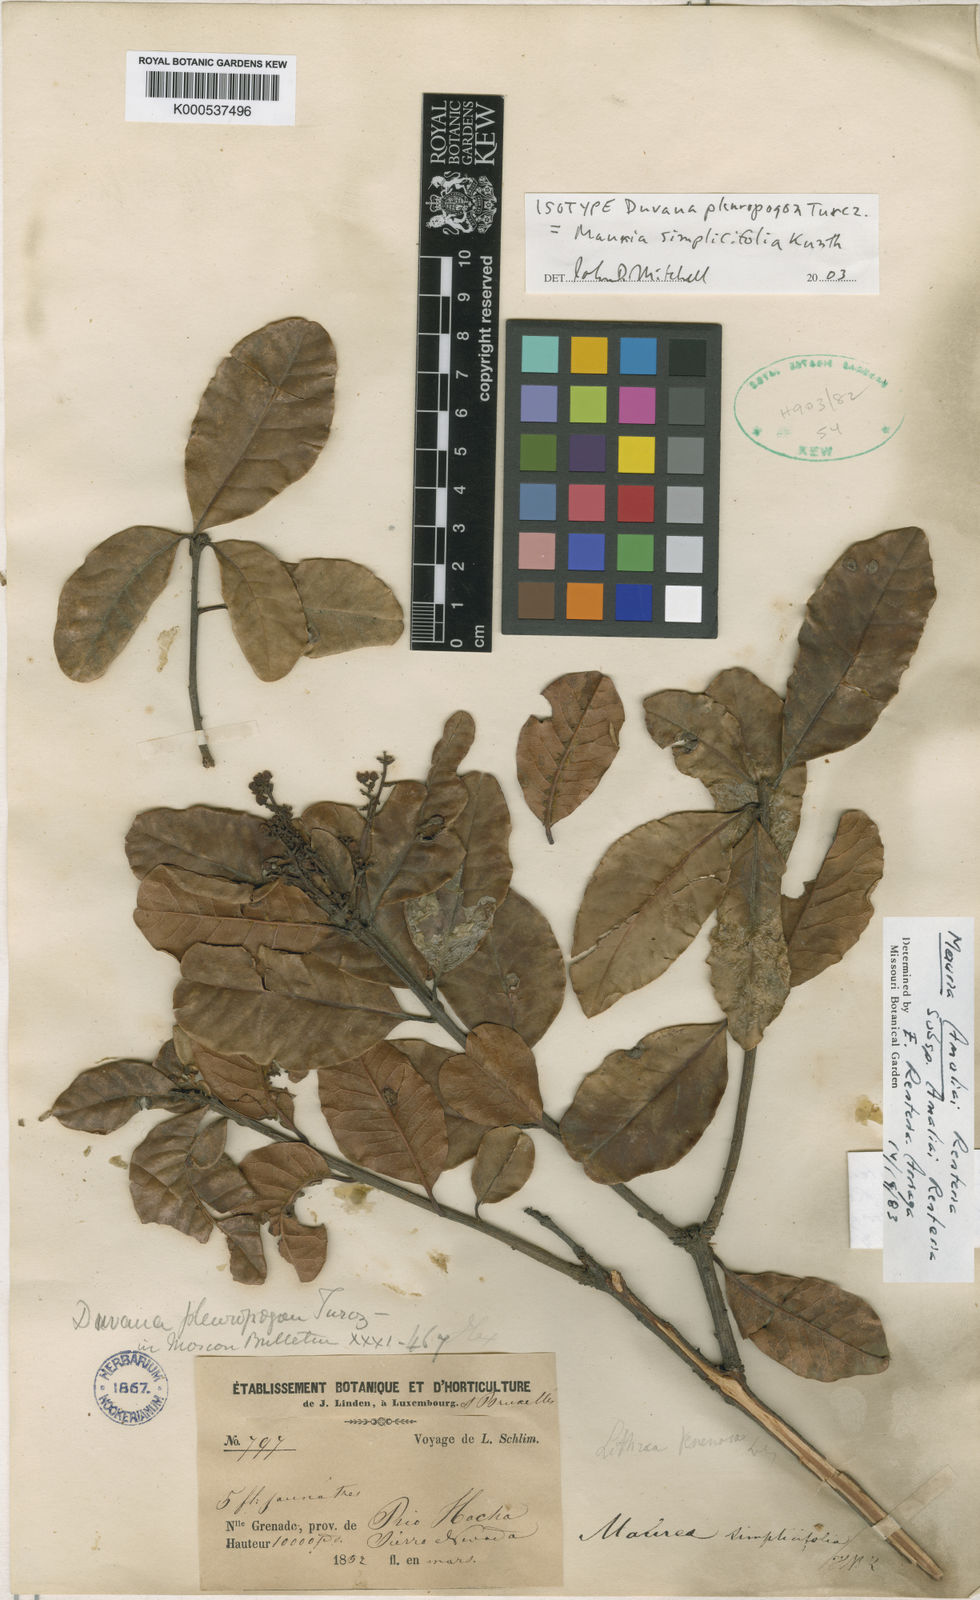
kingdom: Plantae
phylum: Tracheophyta
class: Magnoliopsida
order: Sapindales
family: Anacardiaceae
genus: Mauria
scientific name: Mauria
